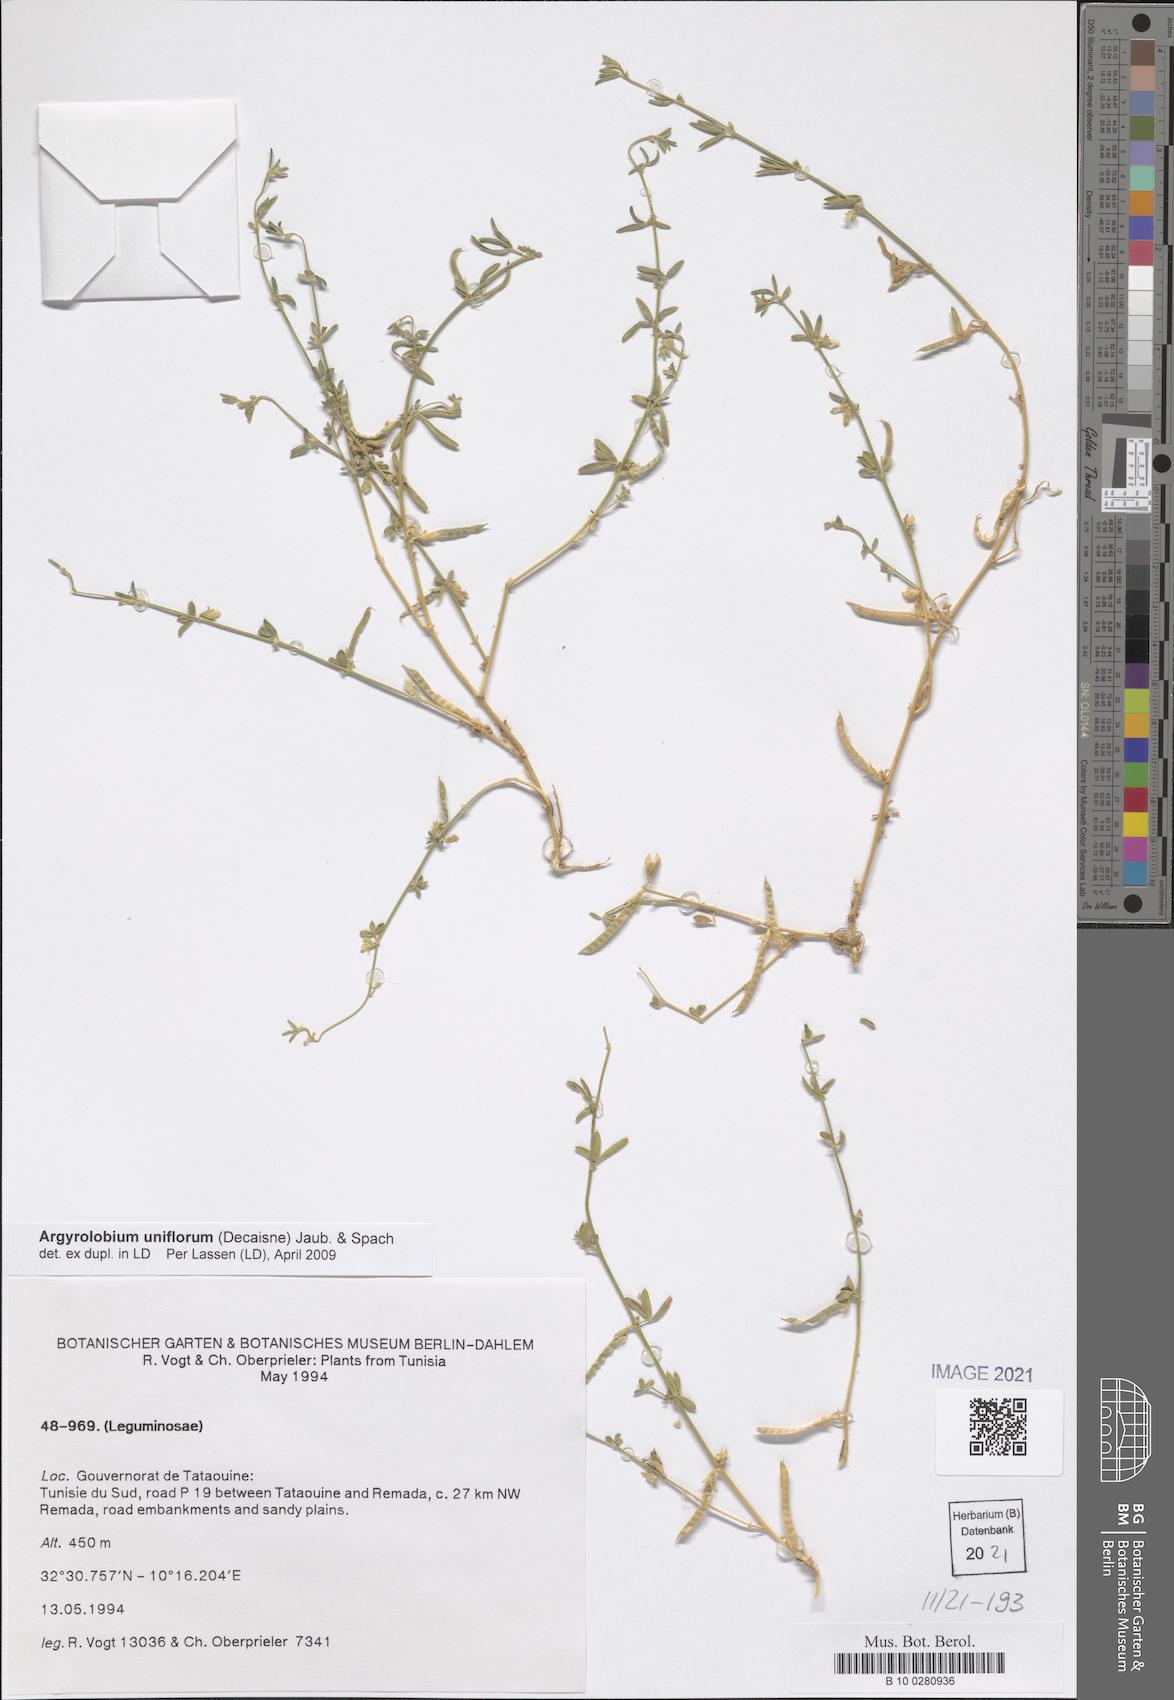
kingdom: Plantae
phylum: Tracheophyta
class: Magnoliopsida
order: Fabales
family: Fabaceae
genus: Argyrolobium
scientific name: Argyrolobium uniflorum
